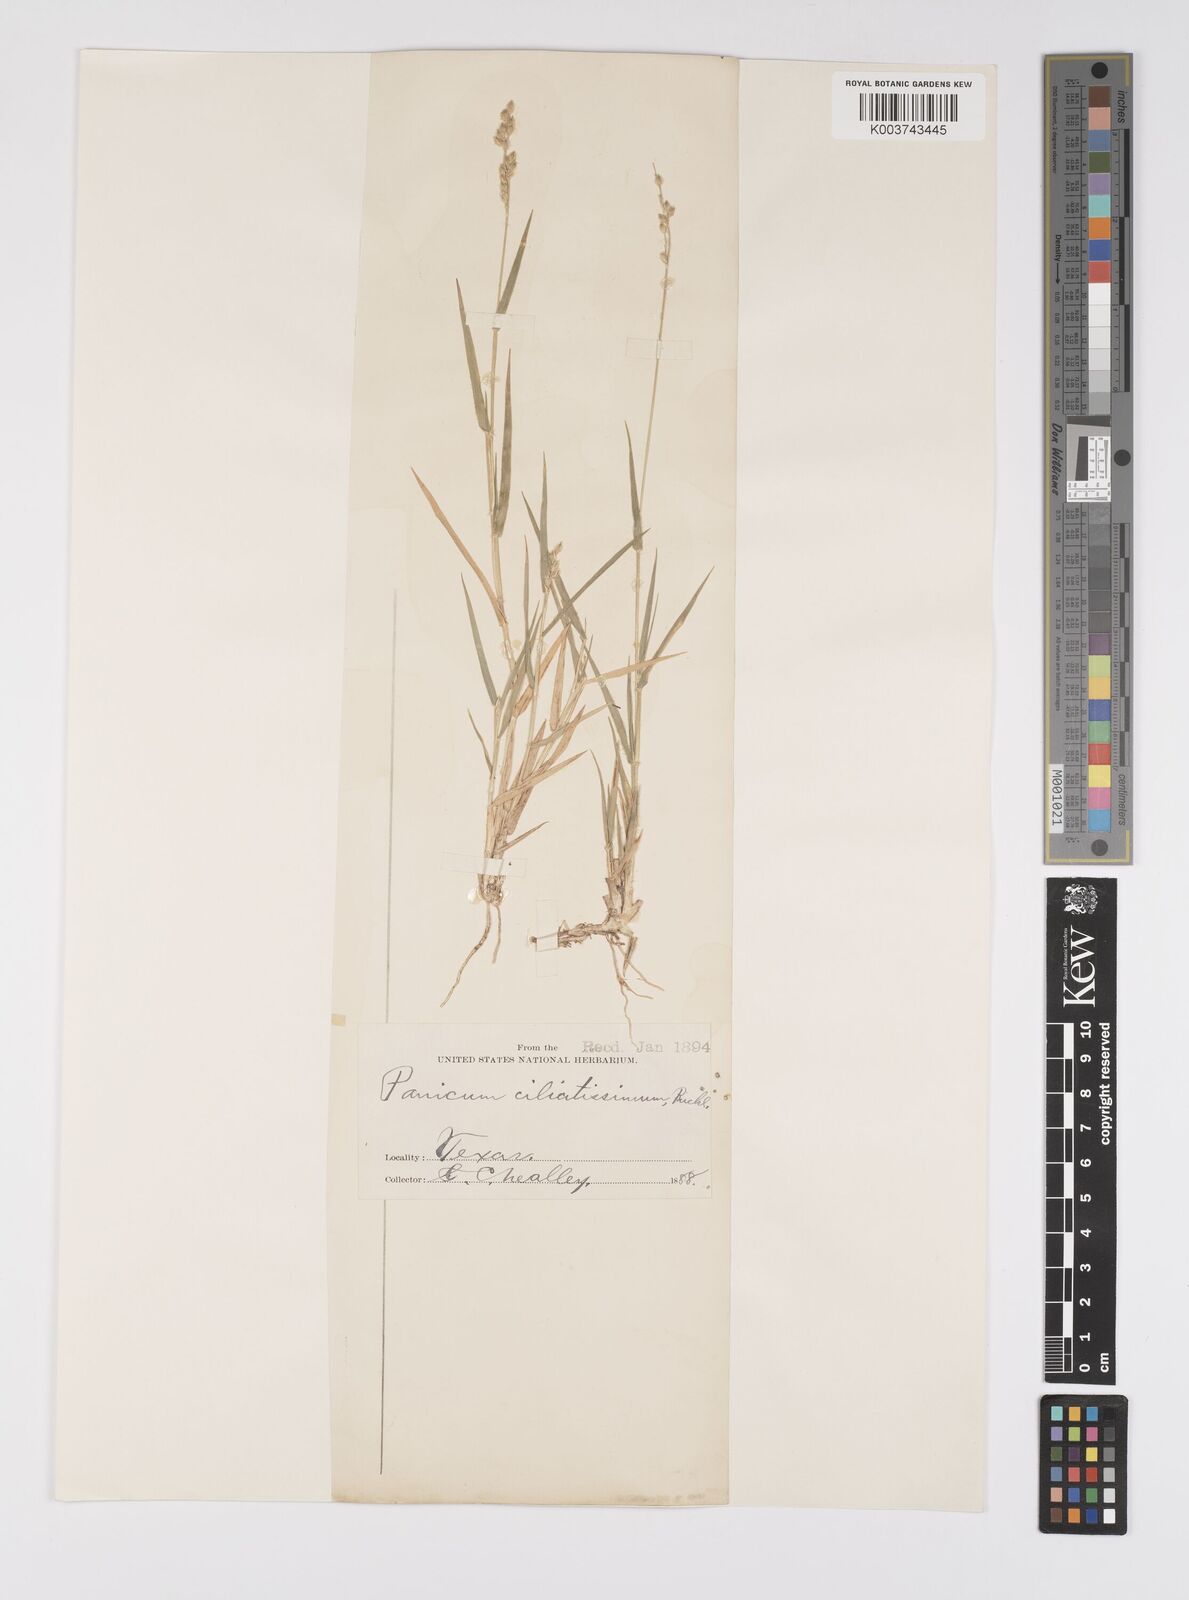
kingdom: Plantae
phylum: Tracheophyta
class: Liliopsida
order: Poales
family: Poaceae
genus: Urochloa
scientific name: Urochloa ciliatissima
